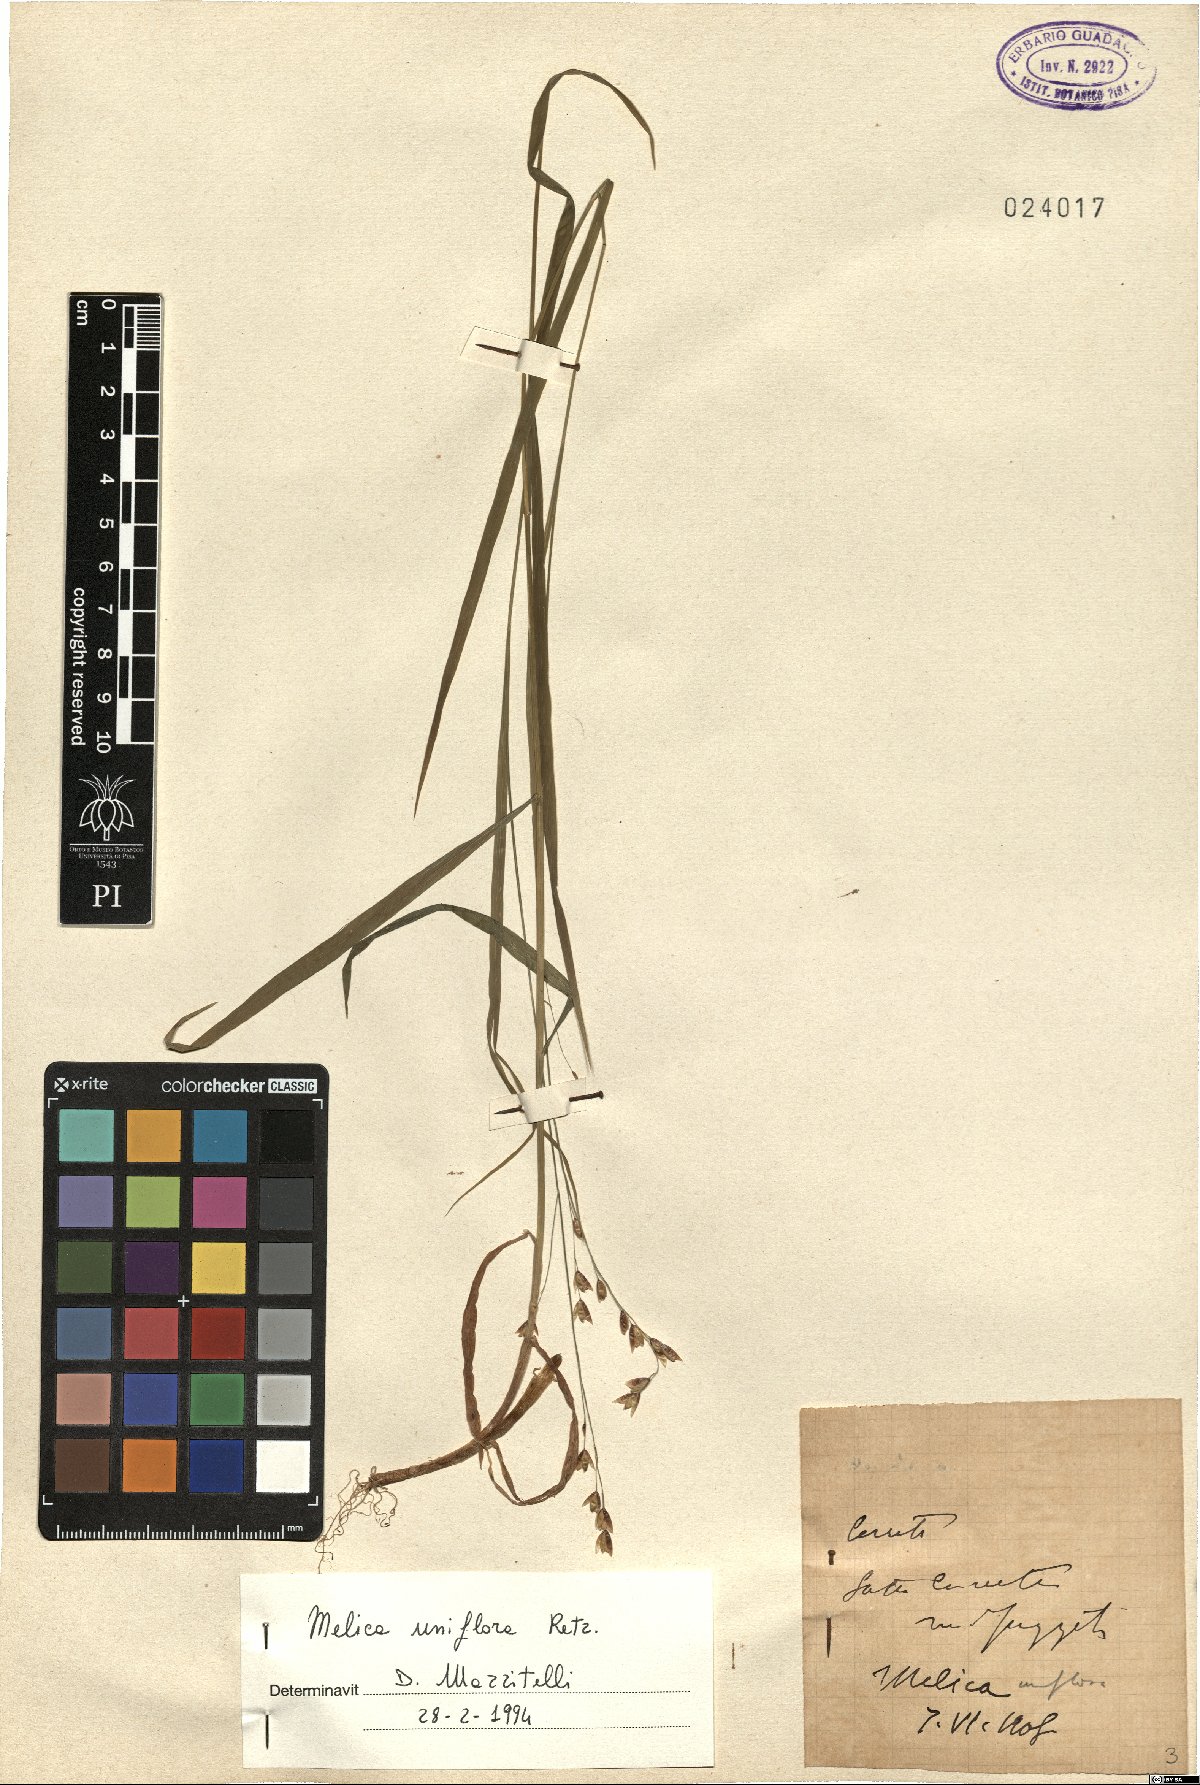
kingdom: Plantae
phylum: Tracheophyta
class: Liliopsida
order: Poales
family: Poaceae
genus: Melica
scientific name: Melica uniflora
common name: Wood melick
